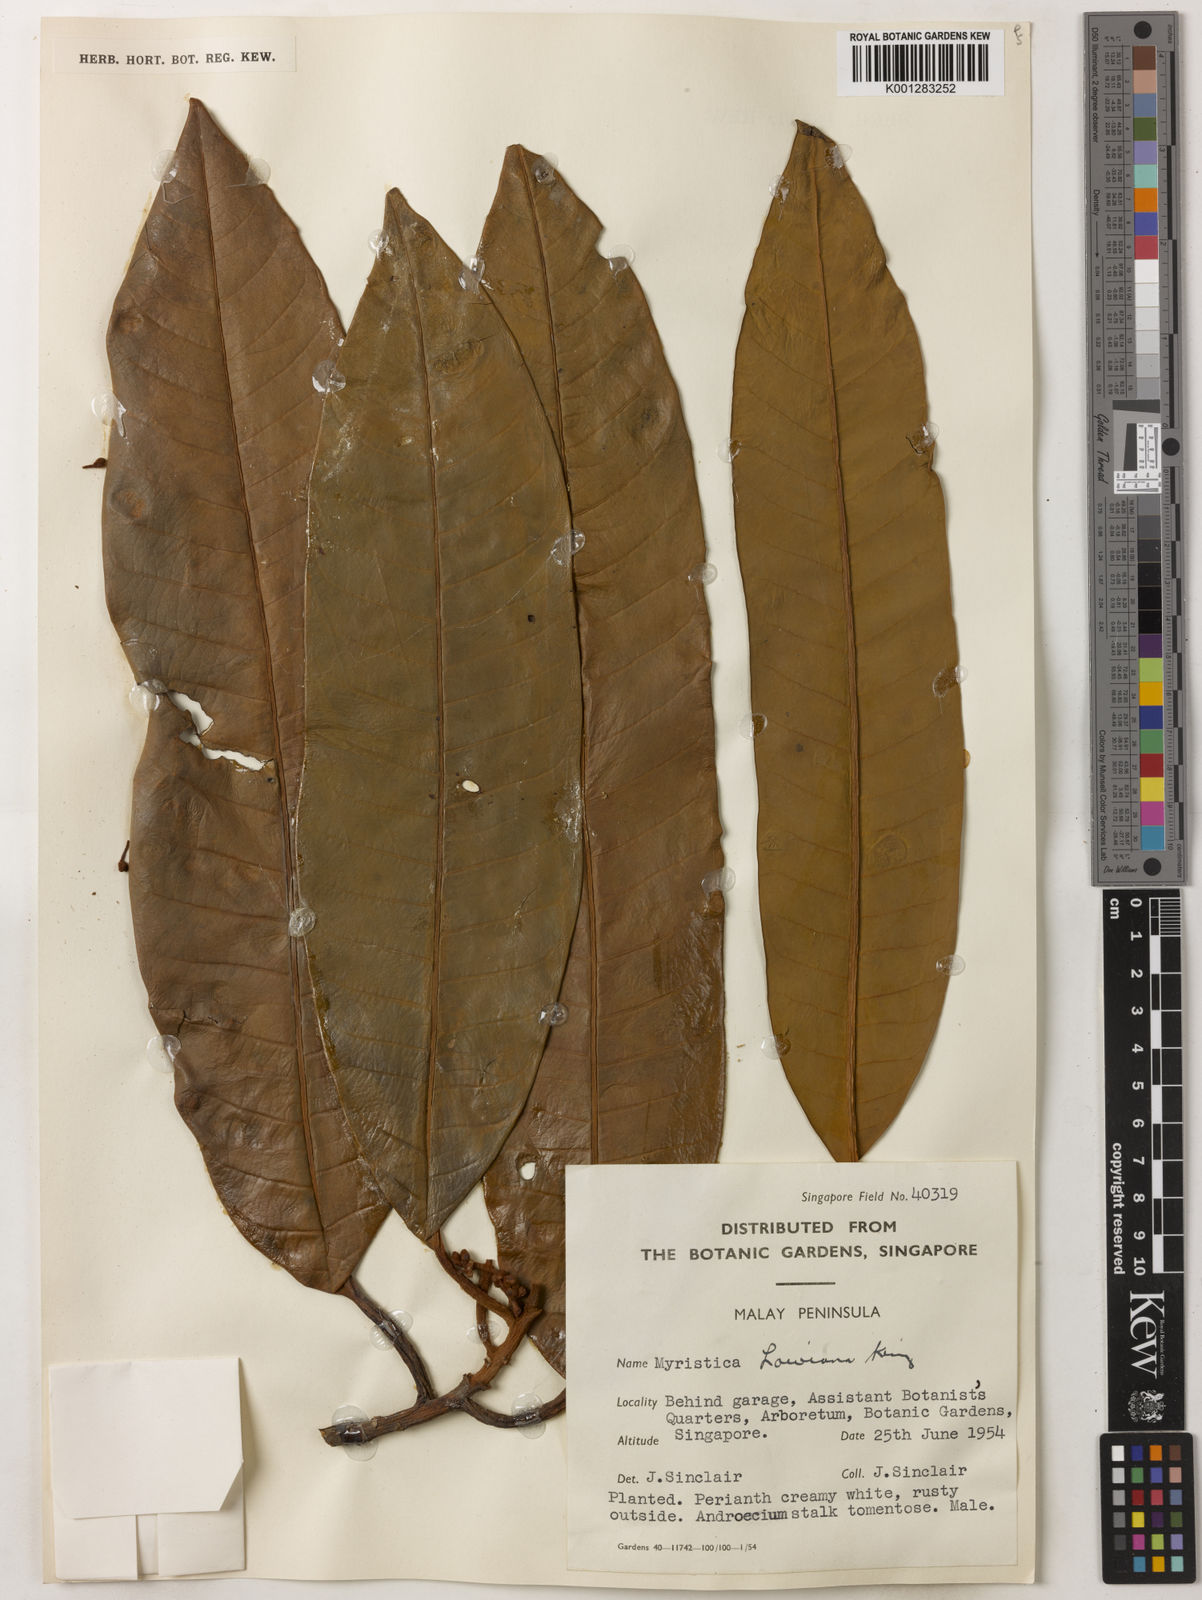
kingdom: Plantae
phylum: Tracheophyta
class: Magnoliopsida
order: Magnoliales
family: Myristicaceae
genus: Myristica
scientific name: Myristica lowiana
